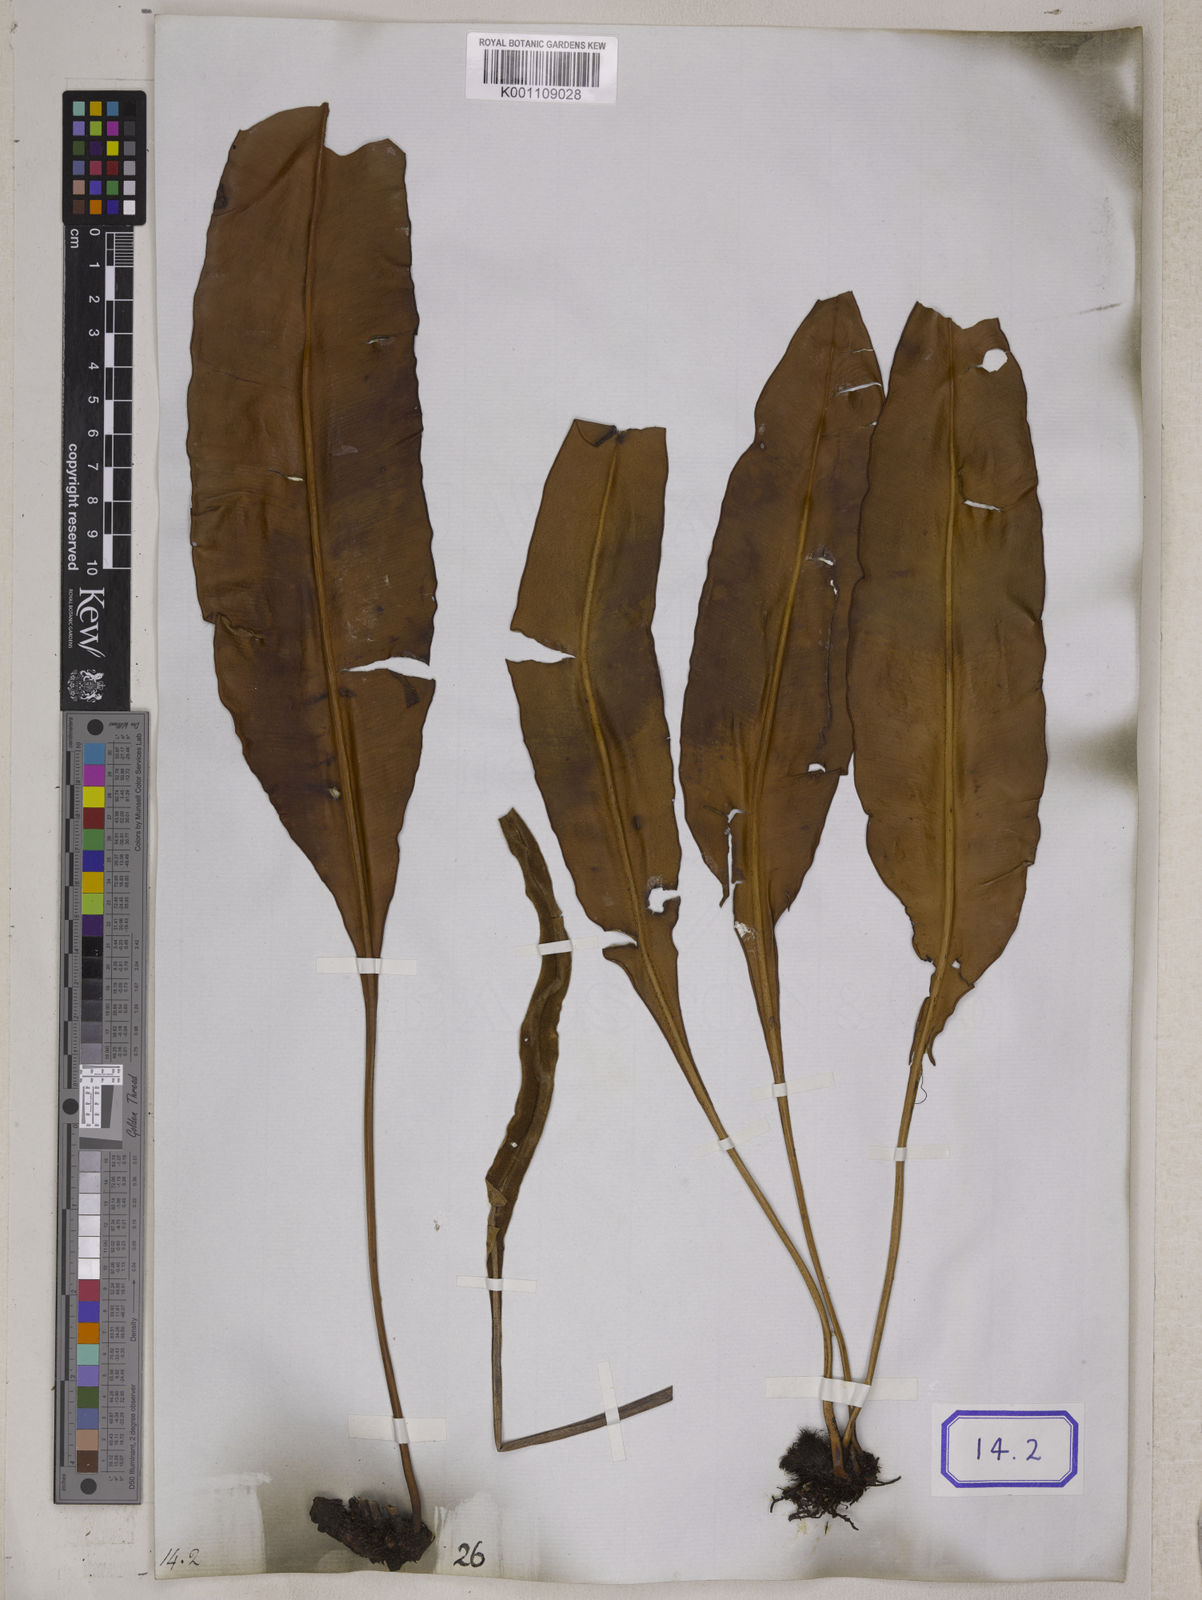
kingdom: Plantae
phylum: Tracheophyta
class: Polypodiopsida
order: Polypodiales
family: Dryopteridaceae
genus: Elaphoglossum
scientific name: Elaphoglossum macropodium
